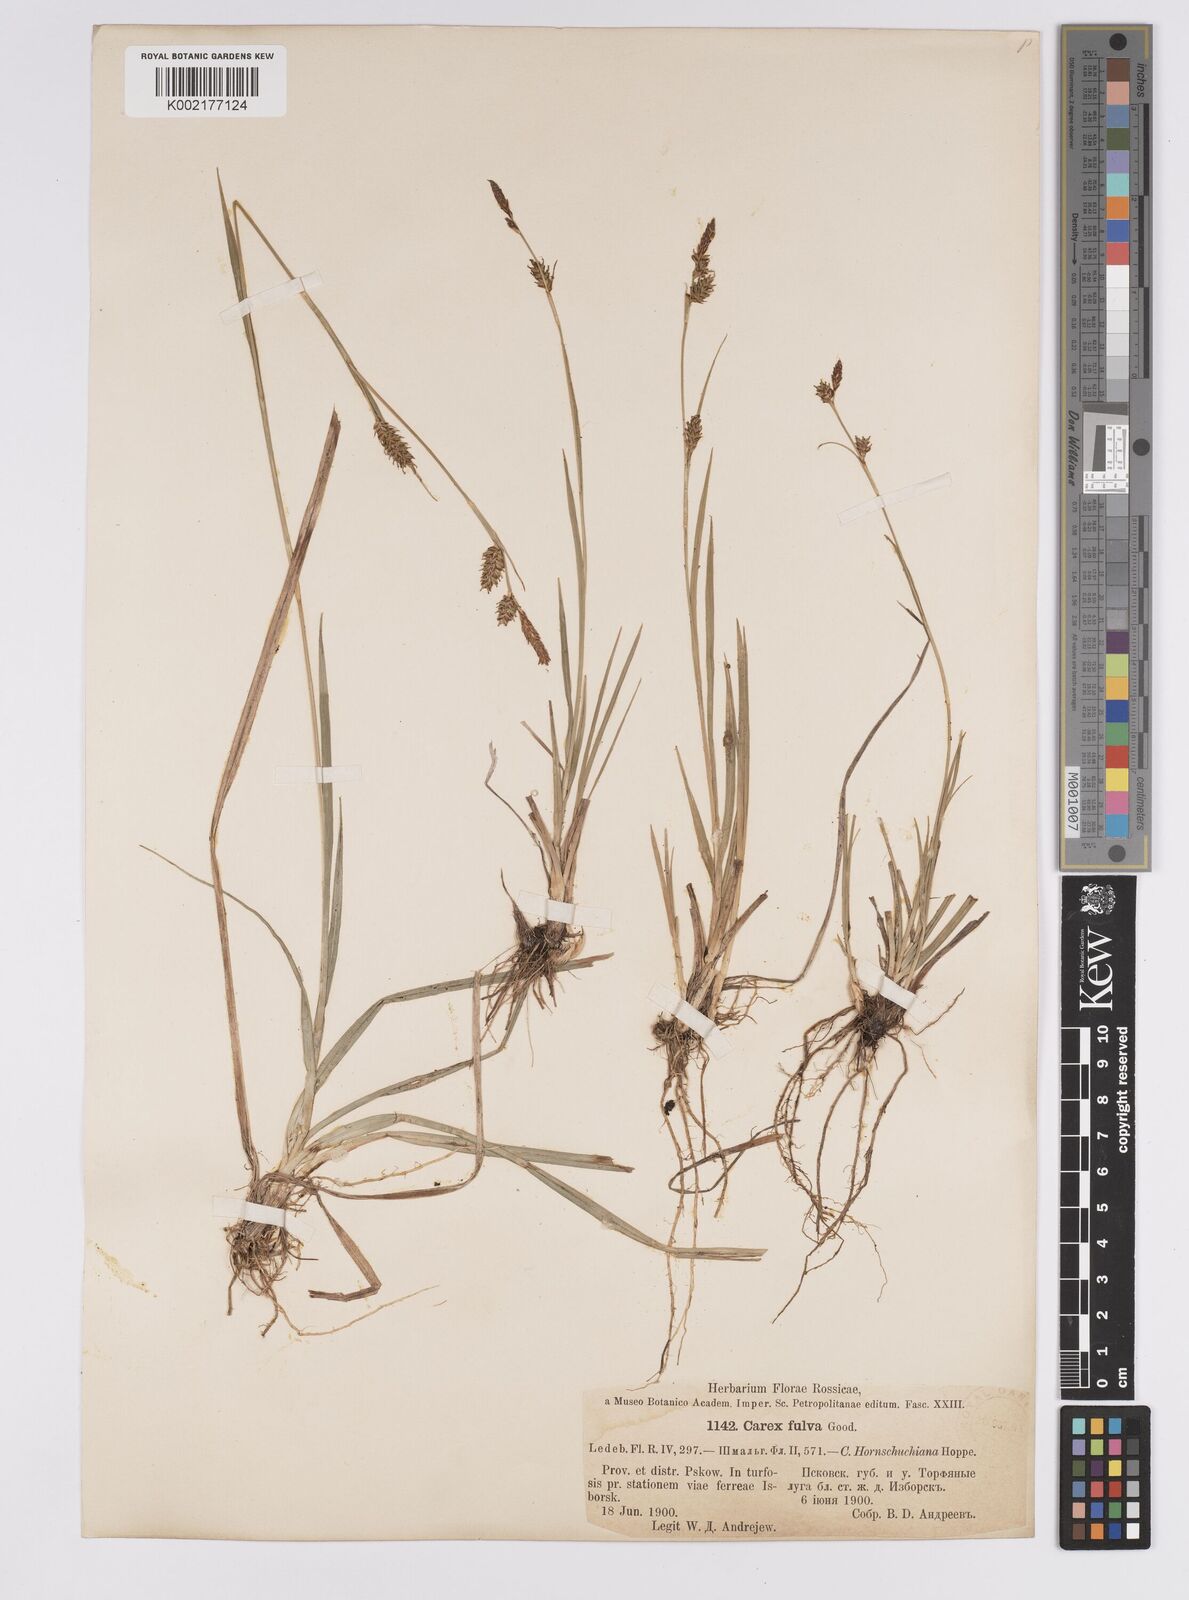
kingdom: Plantae
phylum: Tracheophyta
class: Liliopsida
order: Poales
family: Cyperaceae
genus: Carex
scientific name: Carex hostiana
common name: Tawny sedge
